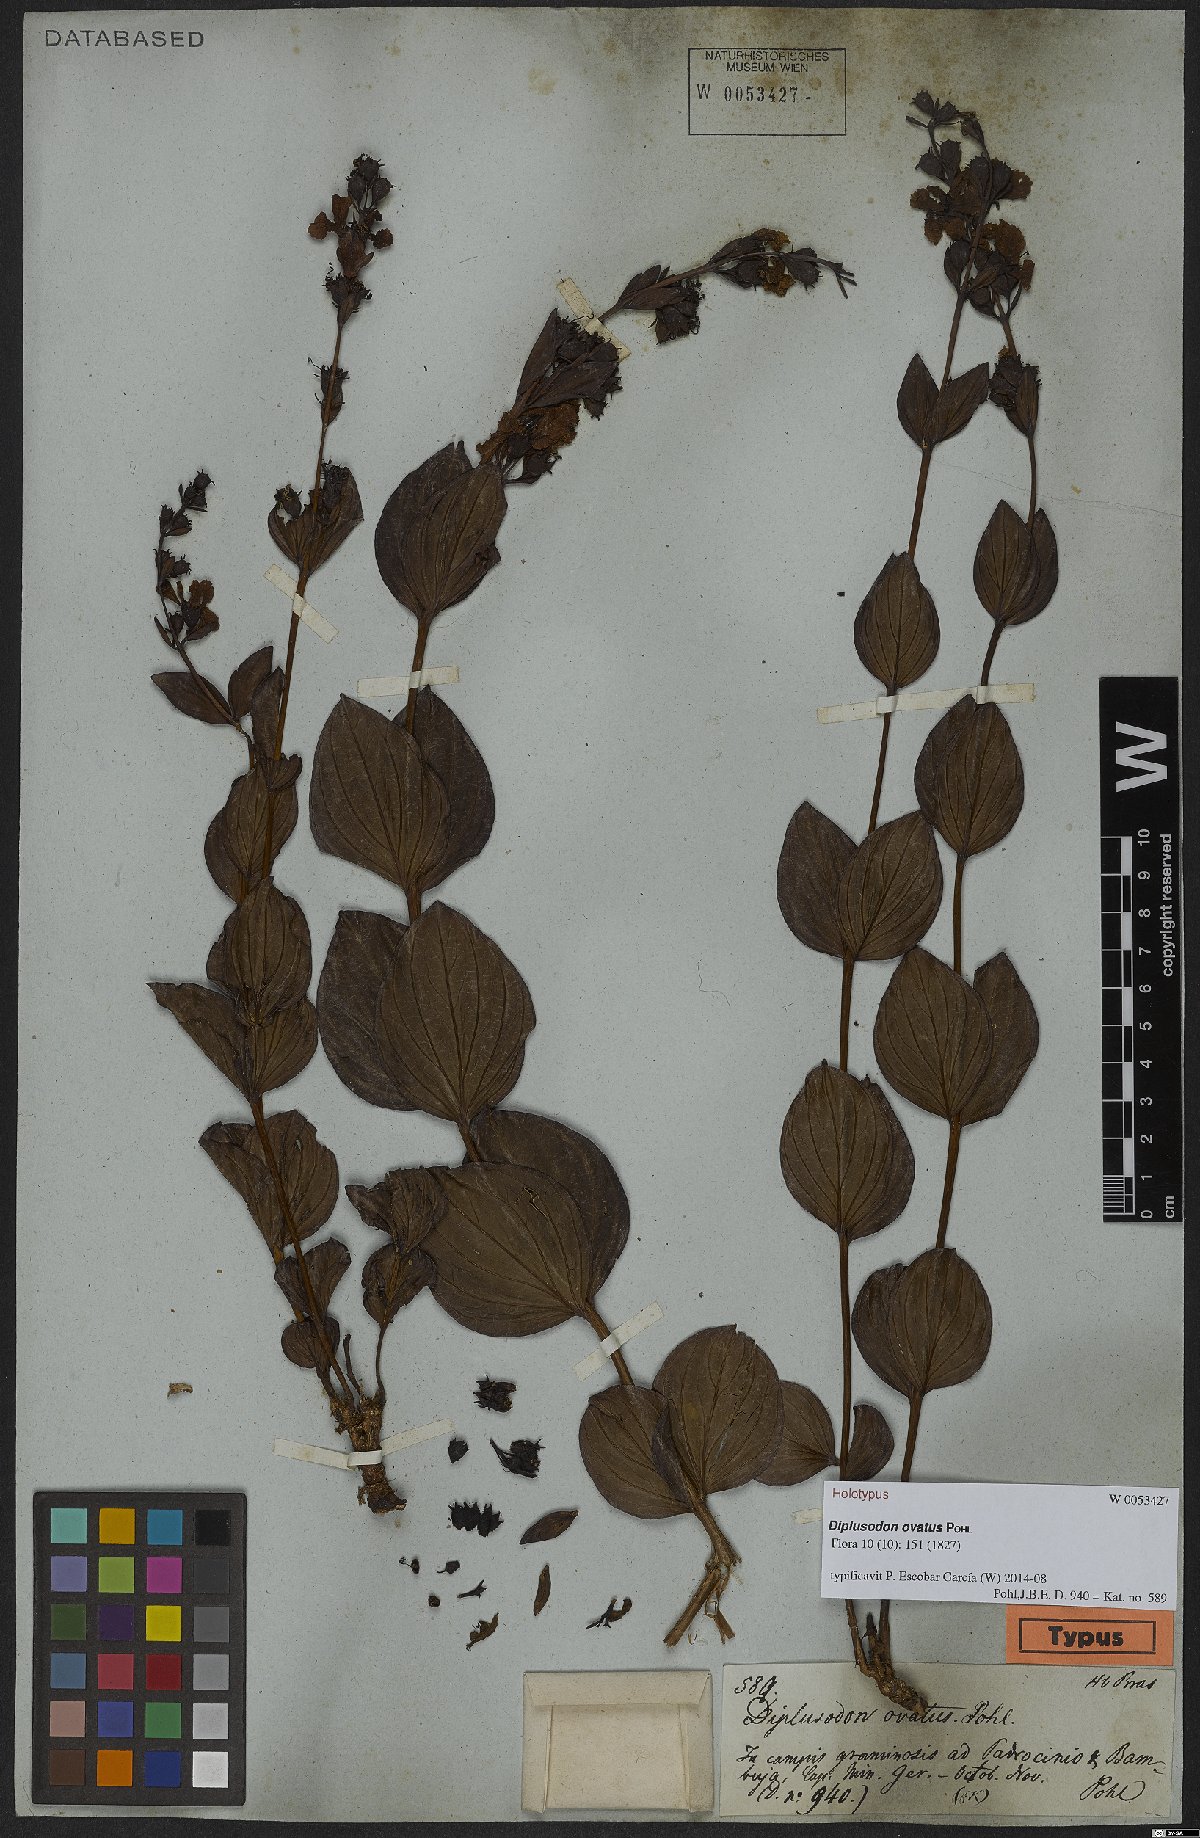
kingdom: Plantae
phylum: Tracheophyta
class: Magnoliopsida
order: Myrtales
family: Lythraceae
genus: Diplusodon
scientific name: Diplusodon ovatus
